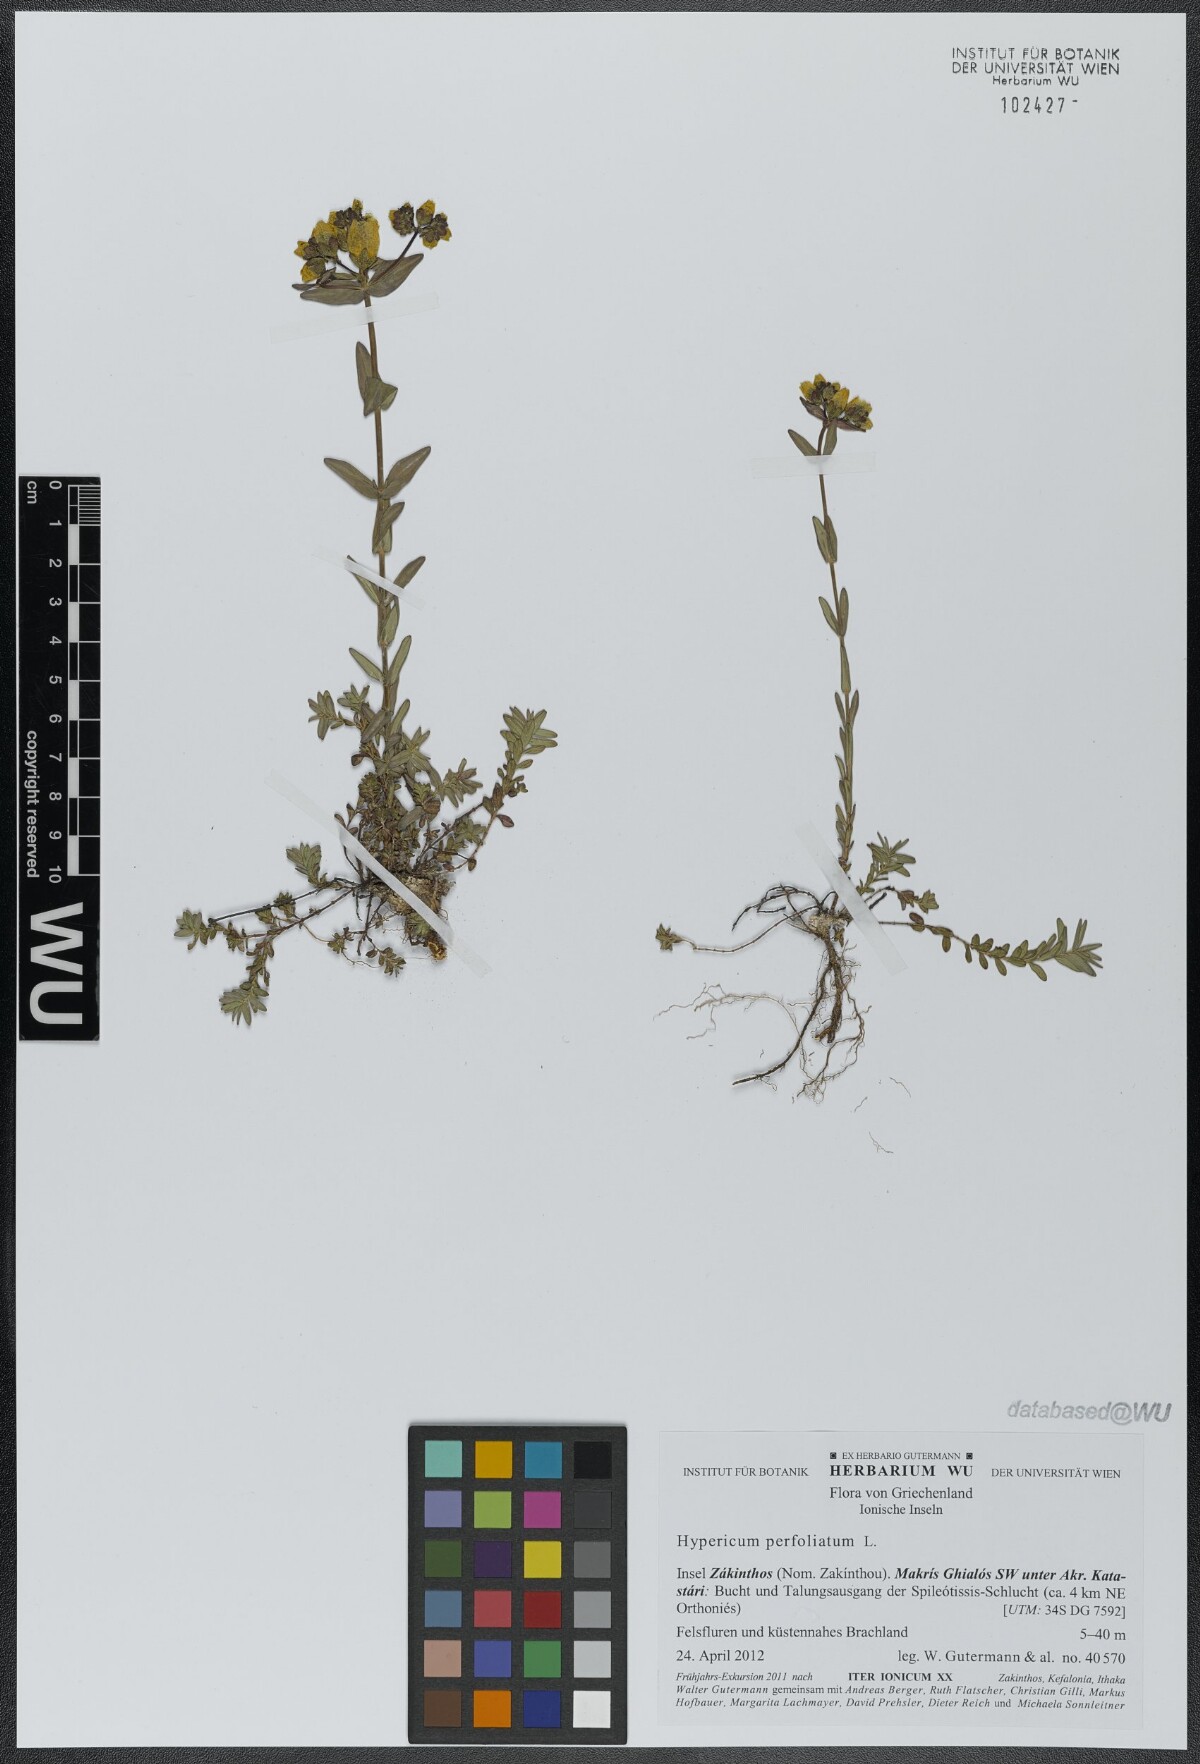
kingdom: Plantae
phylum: Tracheophyta
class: Magnoliopsida
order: Malpighiales
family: Hypericaceae
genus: Hypericum
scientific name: Hypericum perfoliatum
